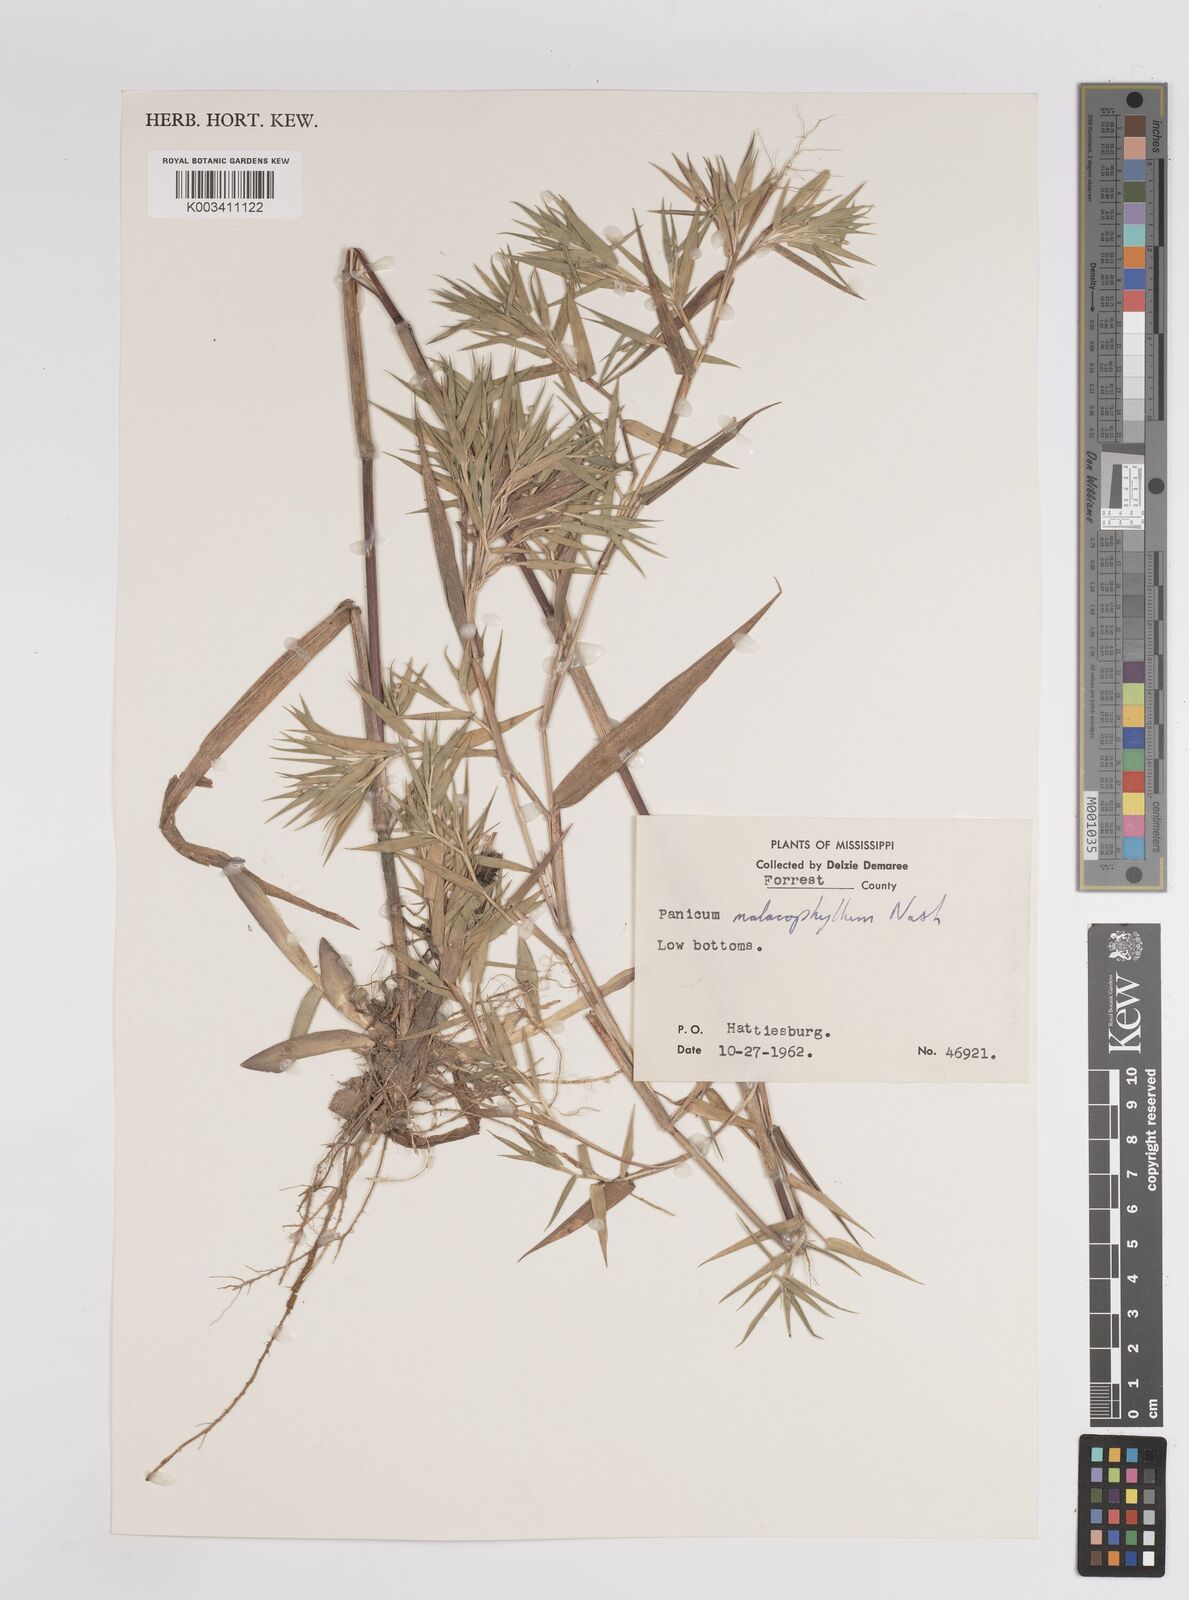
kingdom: Plantae
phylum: Tracheophyta
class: Liliopsida
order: Poales
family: Poaceae
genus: Dichanthelium
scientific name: Dichanthelium malacophyllum
